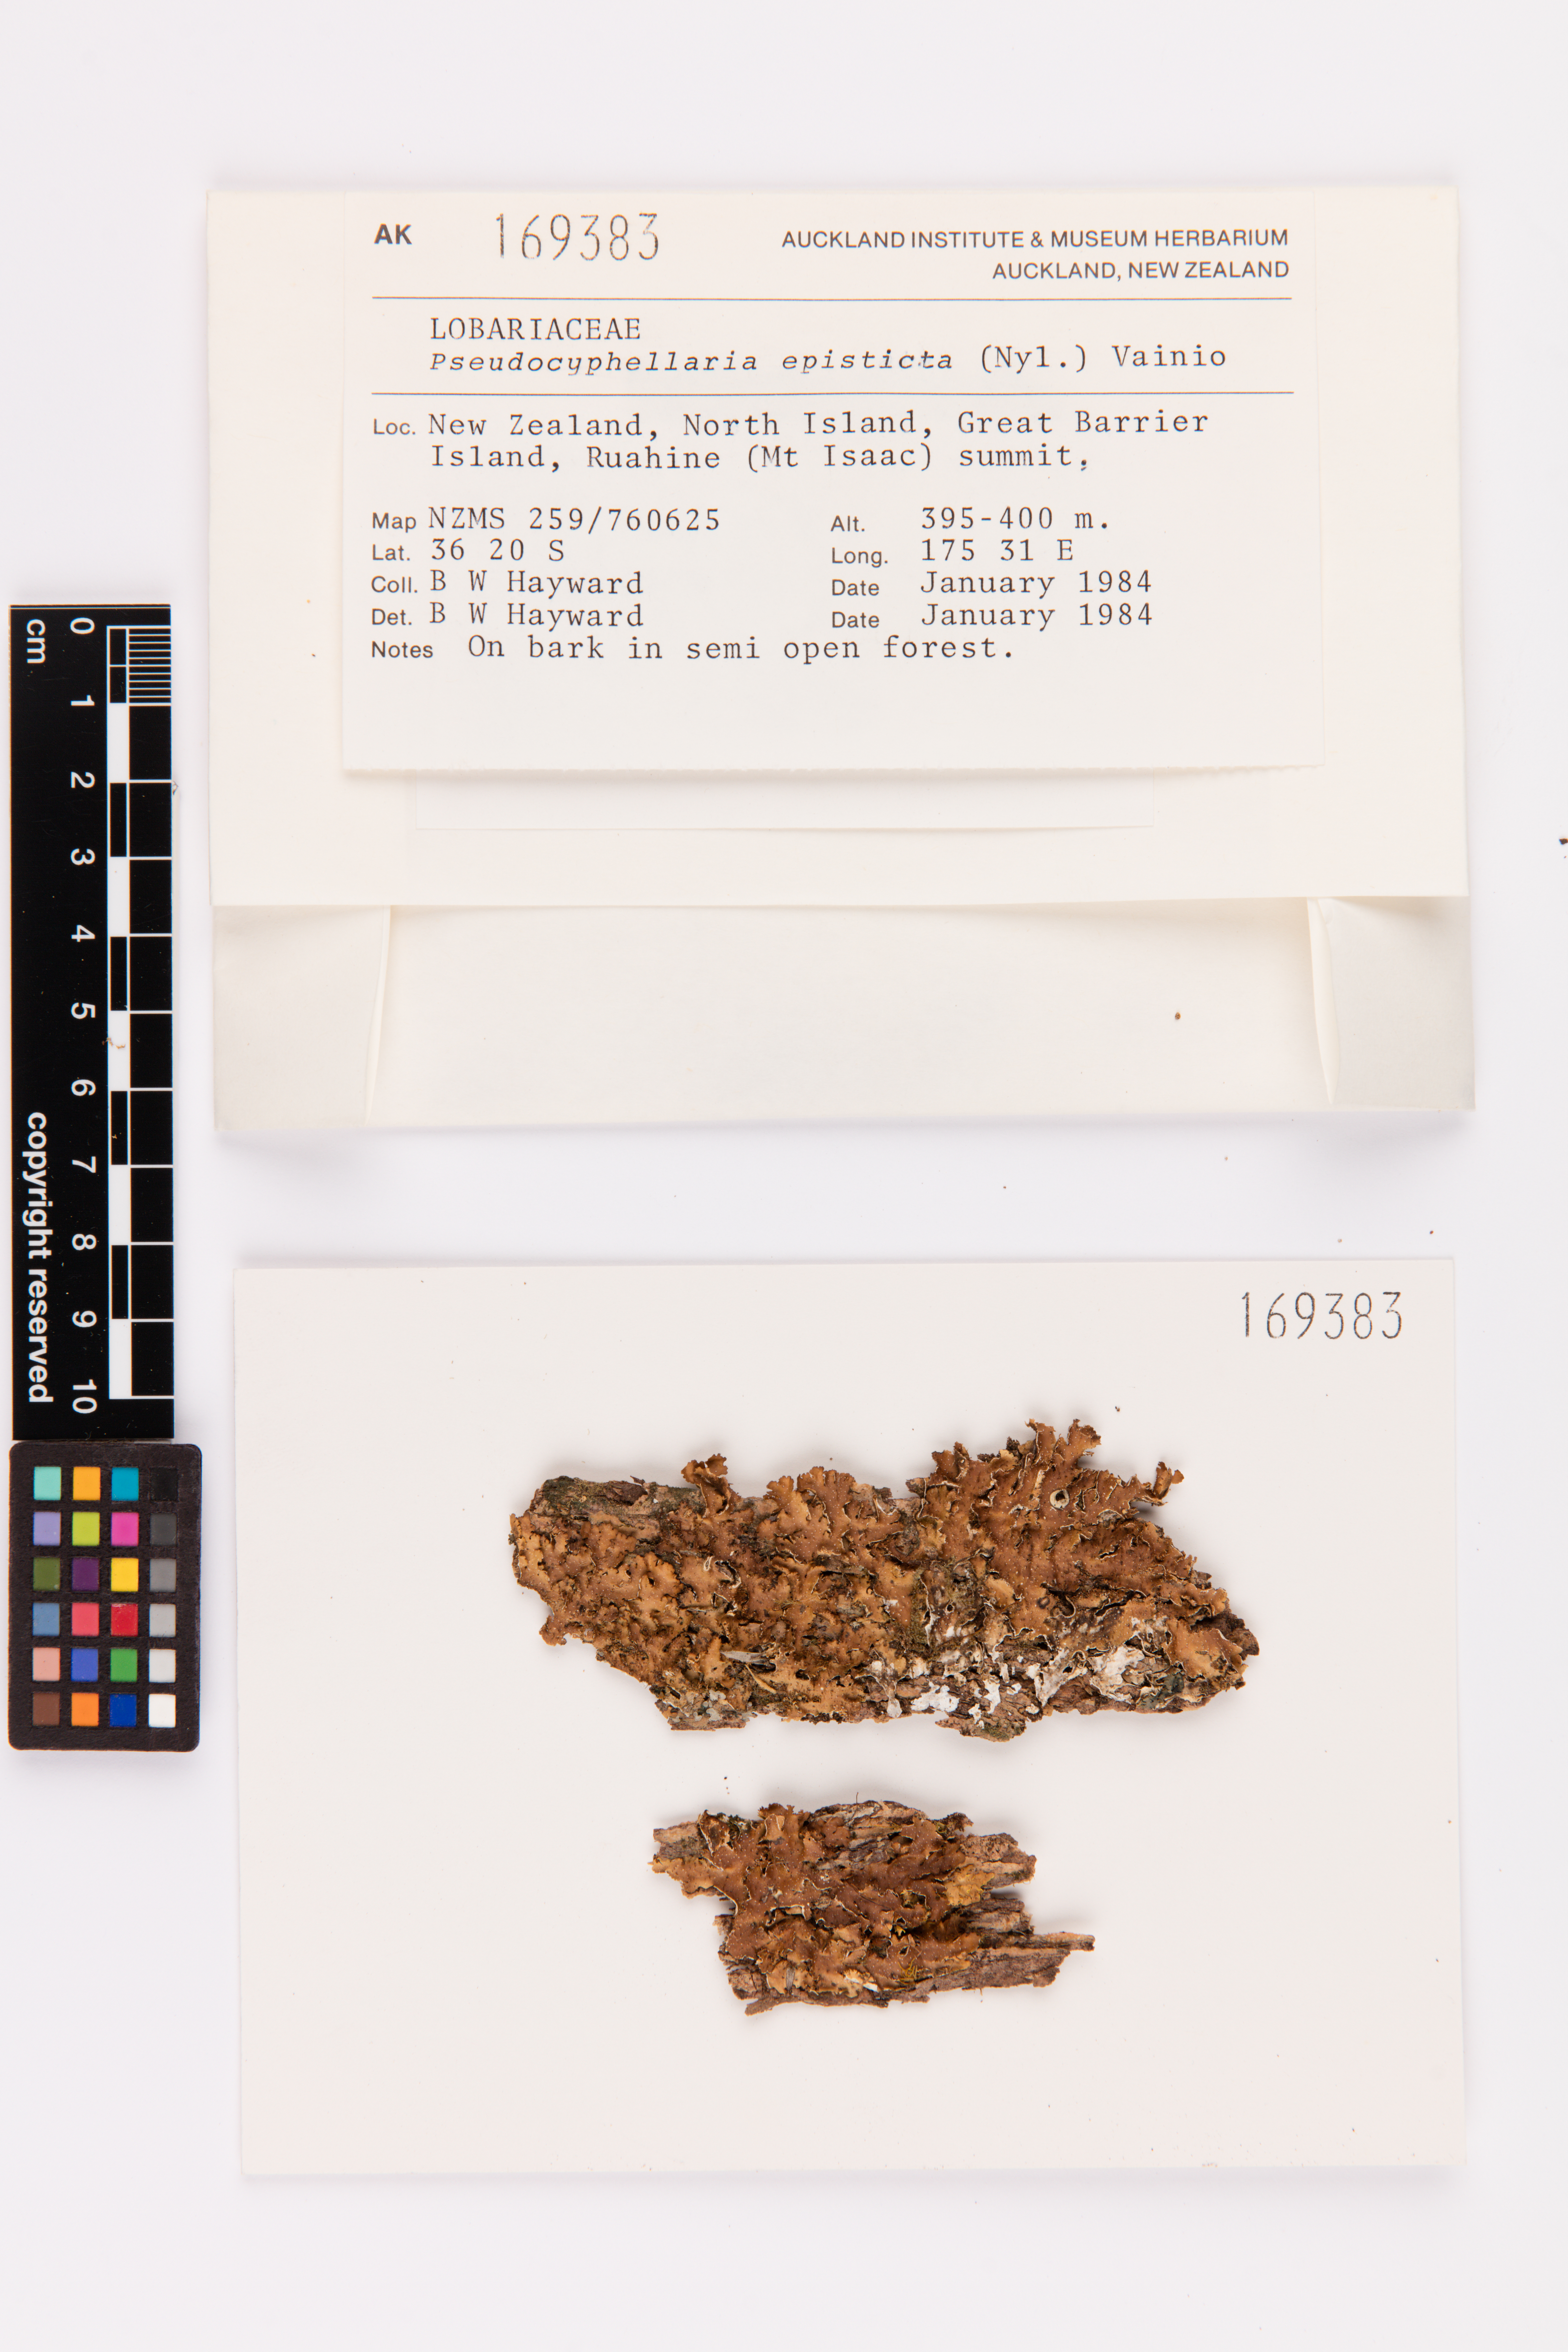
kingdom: Fungi
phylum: Ascomycota
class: Lecanoromycetes
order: Peltigerales
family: Lobariaceae
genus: Pseudocyphellaria
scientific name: Pseudocyphellaria episticta
